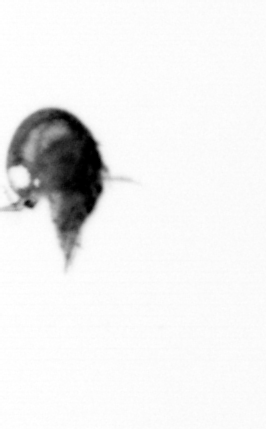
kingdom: Animalia
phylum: Arthropoda
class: Copepoda
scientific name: Copepoda
